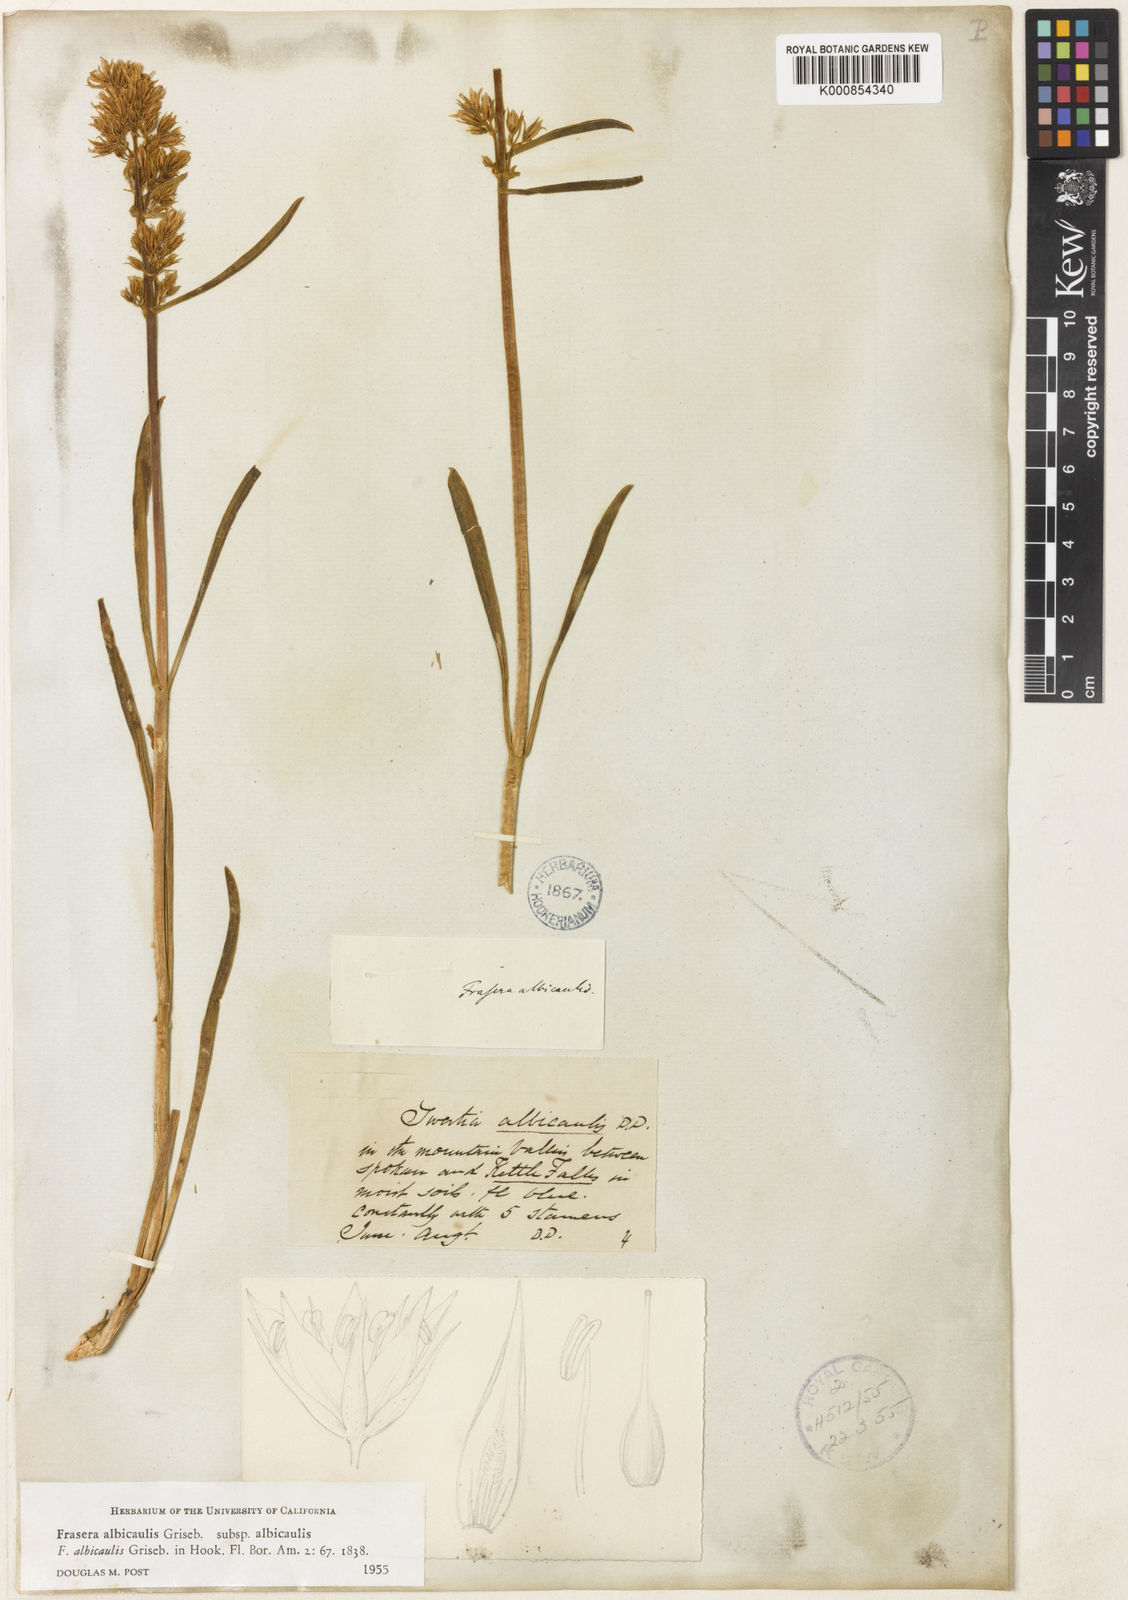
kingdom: Plantae
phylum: Tracheophyta
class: Magnoliopsida
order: Gentianales
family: Gentianaceae
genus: Frasera
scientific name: Frasera albicaulis
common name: Cusick's frasera
